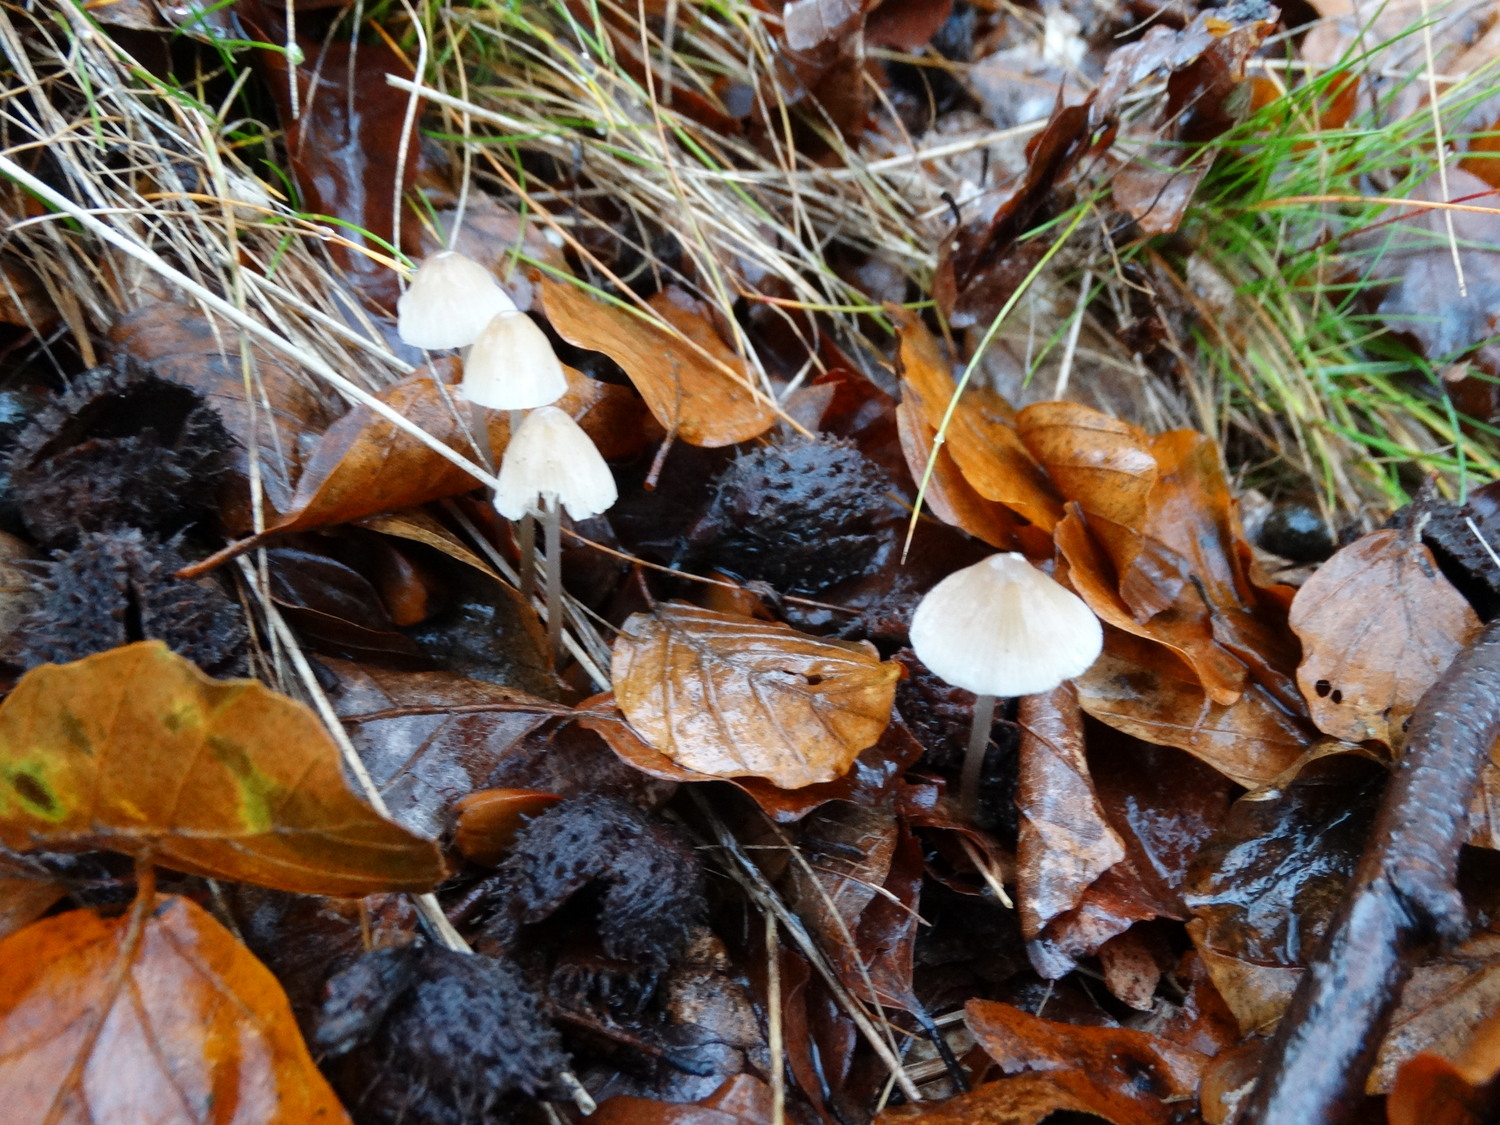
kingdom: Fungi
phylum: Basidiomycota
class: Agaricomycetes
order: Agaricales
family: Mycenaceae
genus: Mycena
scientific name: Mycena vitilis
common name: blankstokket huesvamp
